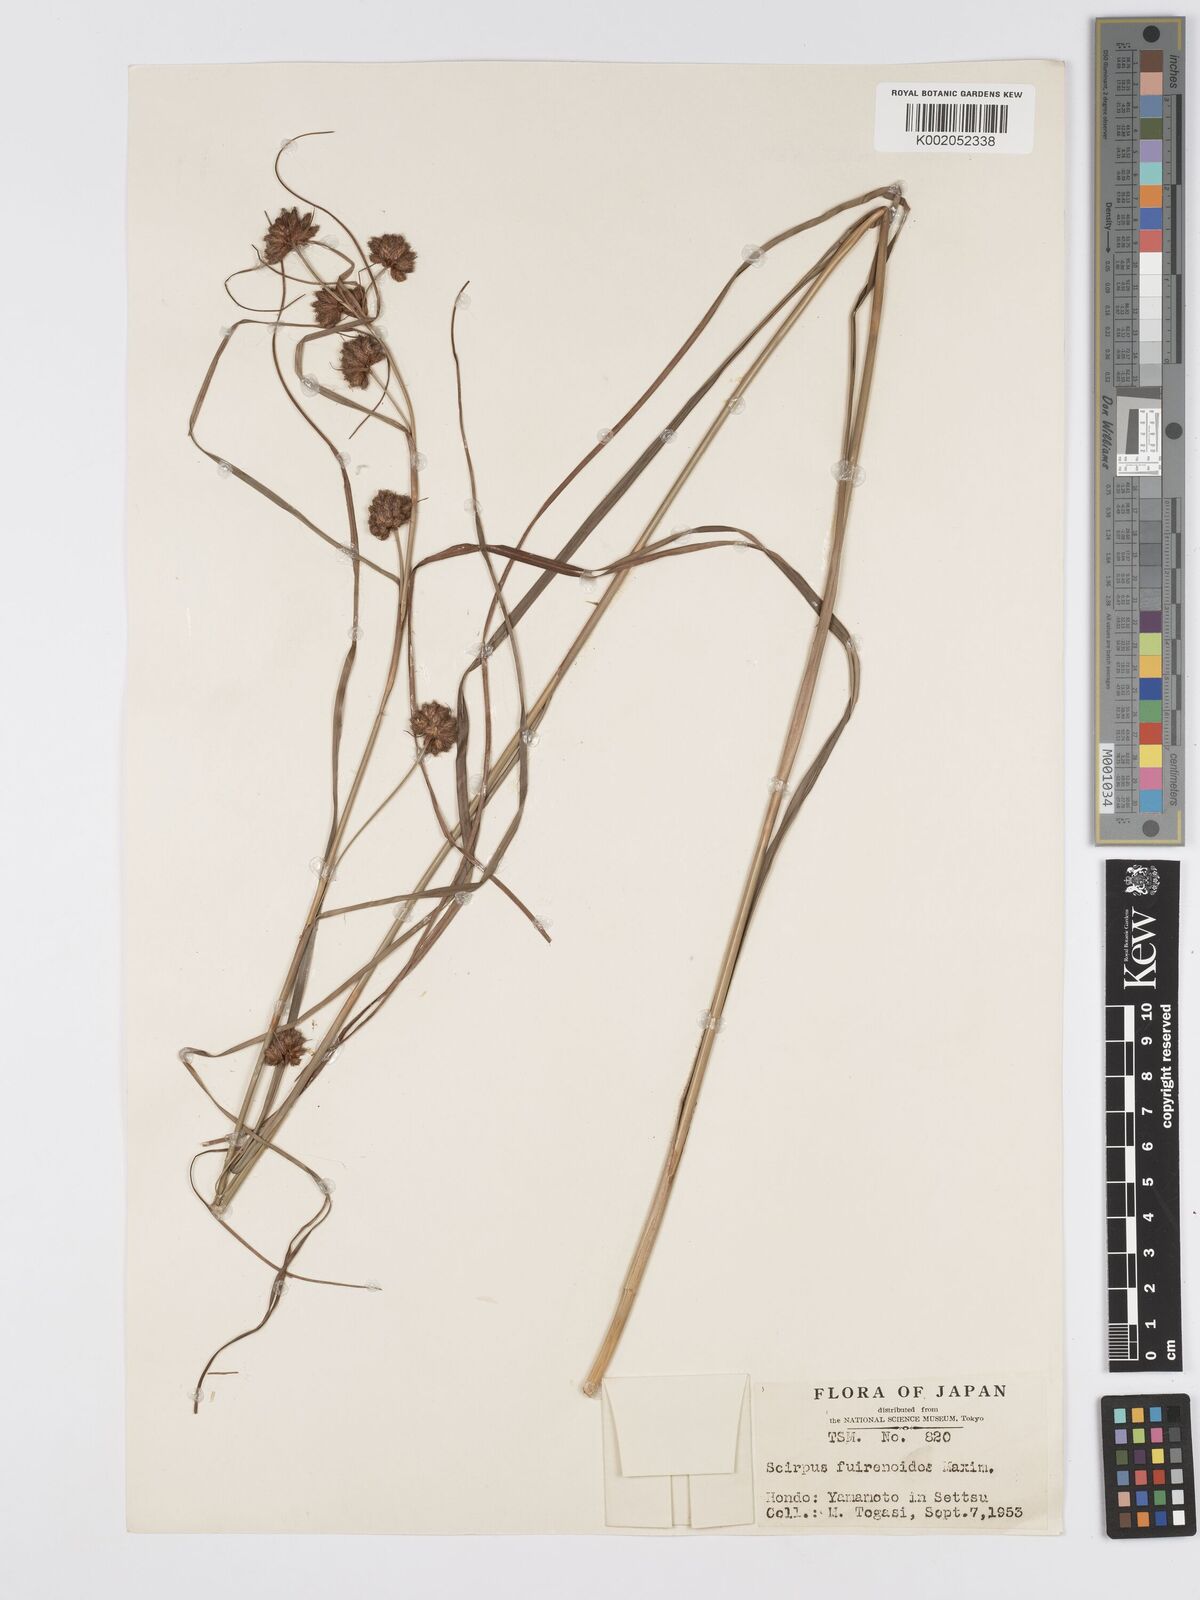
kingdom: Plantae
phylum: Tracheophyta
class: Liliopsida
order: Poales
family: Cyperaceae
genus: Scirpus
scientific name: Scirpus fuirenoides
